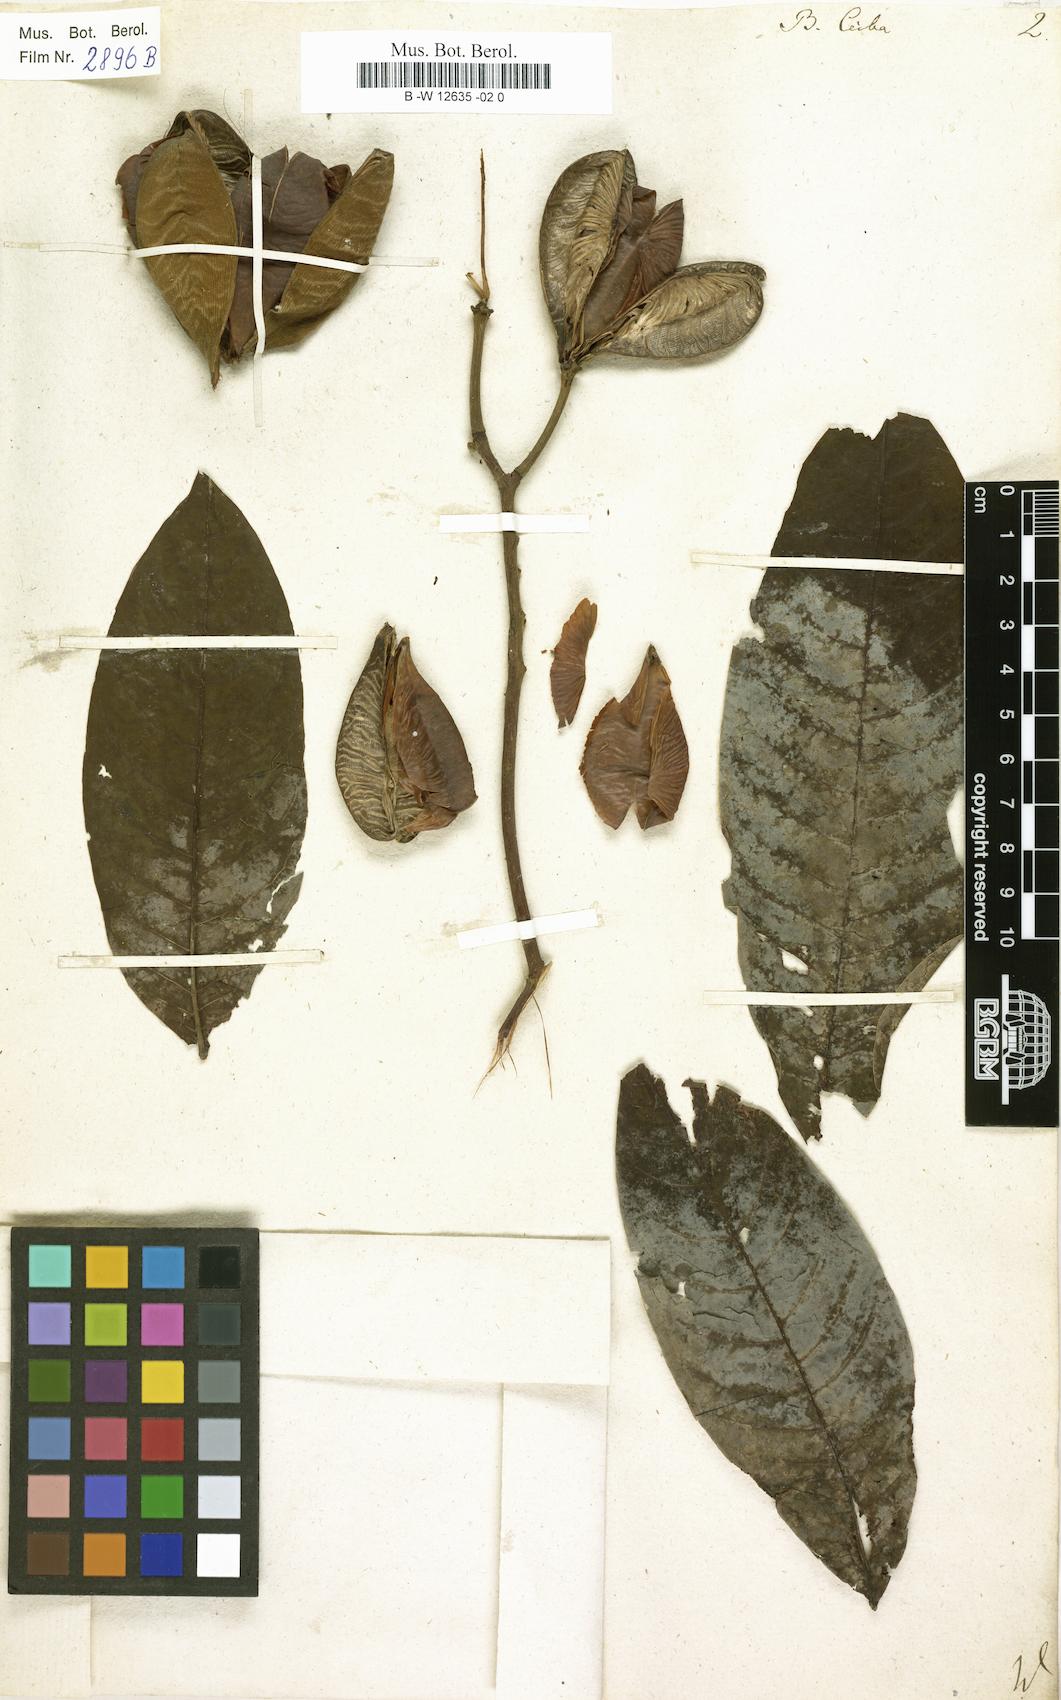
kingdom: Plantae
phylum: Tracheophyta
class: Magnoliopsida
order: Malvales
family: Malvaceae
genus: Bombax
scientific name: Bombax ceiba
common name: Northern-cottonwood
